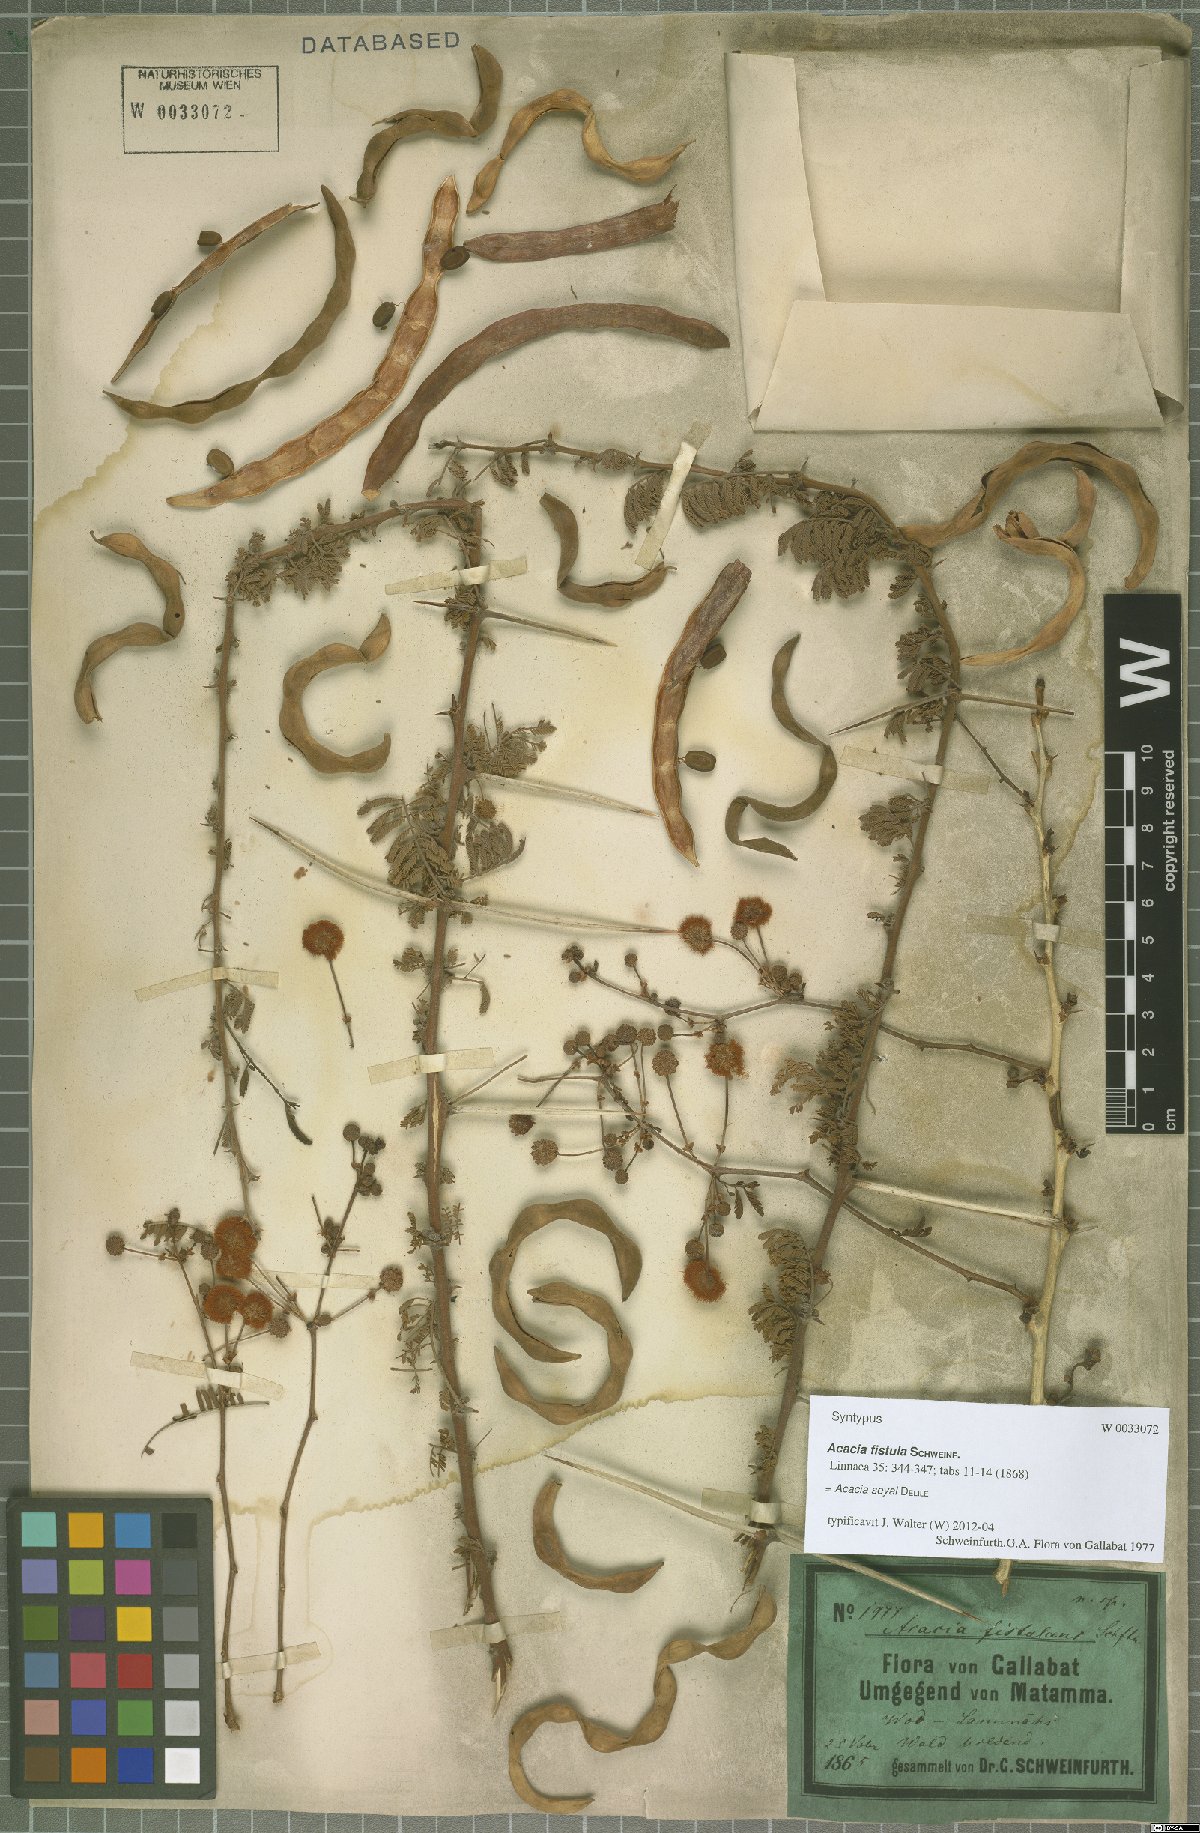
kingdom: Plantae
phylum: Tracheophyta
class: Magnoliopsida
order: Fabales
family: Fabaceae
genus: Vachellia
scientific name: Vachellia seyal
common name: Thirtythorn
